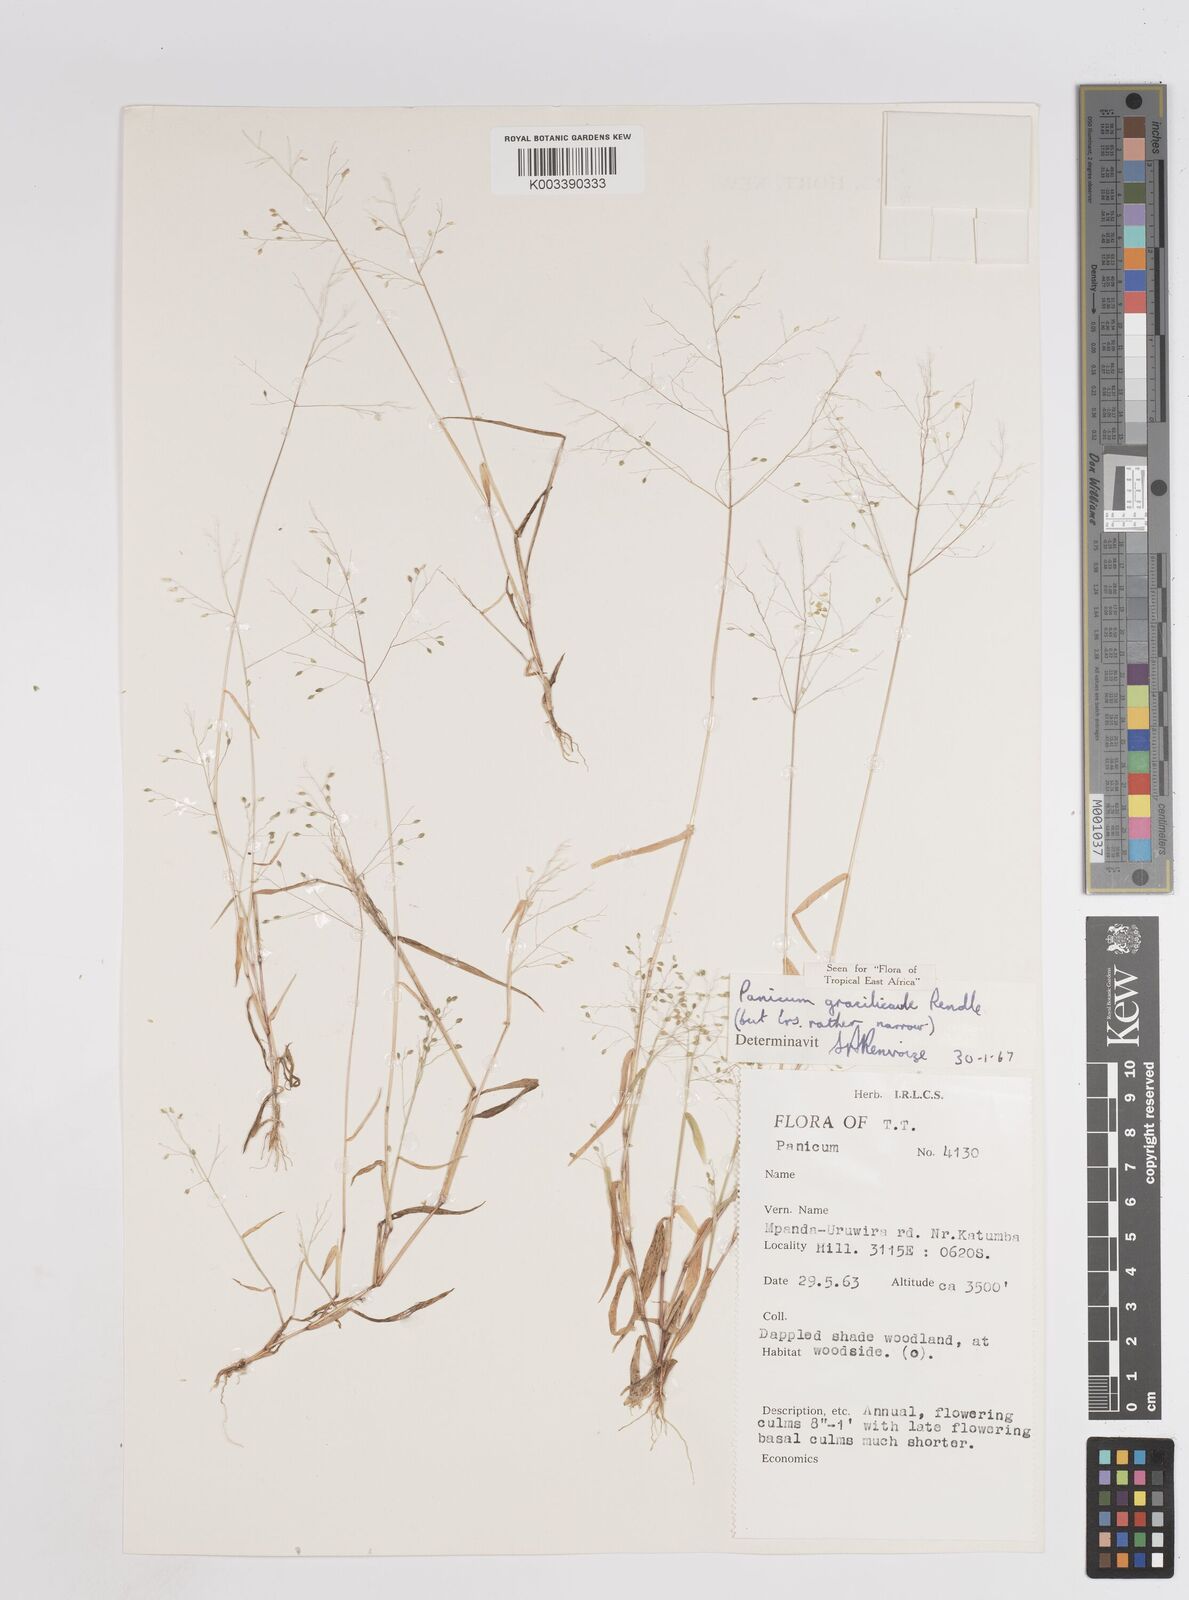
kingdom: Plantae
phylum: Tracheophyta
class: Liliopsida
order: Poales
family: Poaceae
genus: Trichanthecium
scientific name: Trichanthecium gracilicaule
